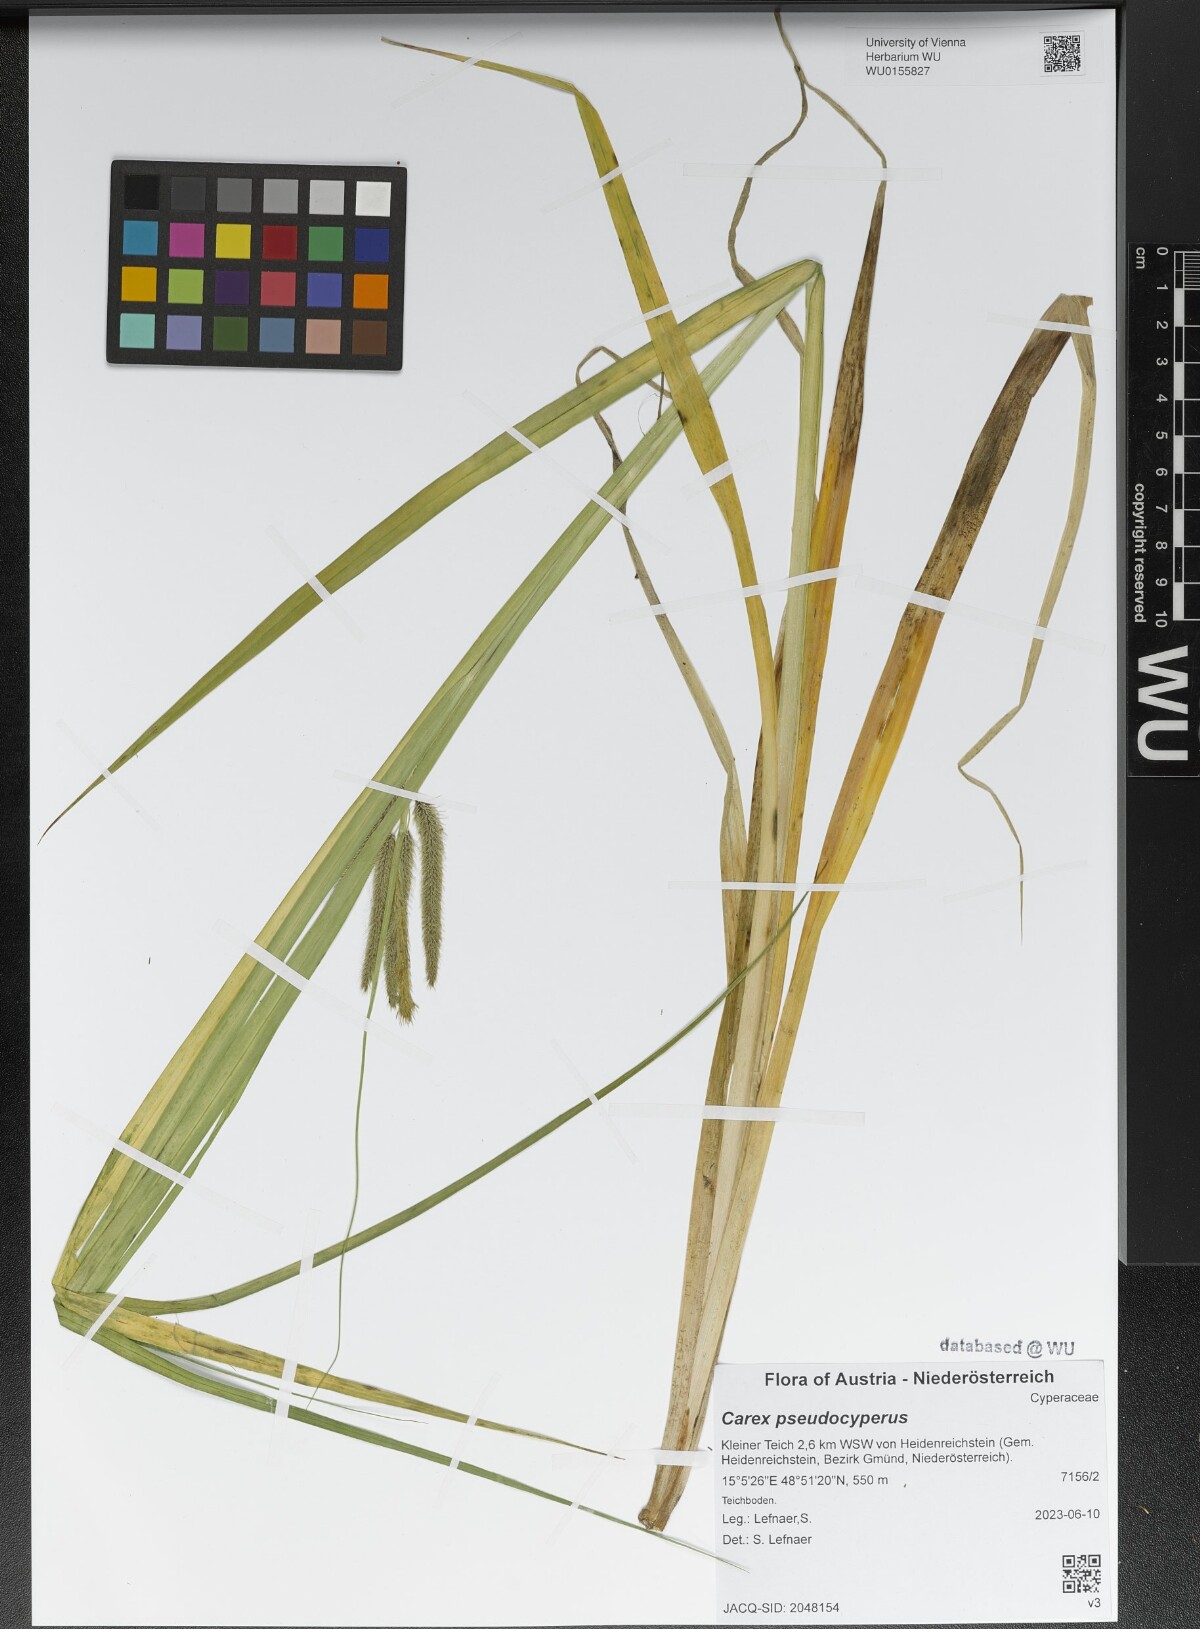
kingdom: Plantae
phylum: Tracheophyta
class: Liliopsida
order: Poales
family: Cyperaceae
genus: Carex
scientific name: Carex pseudocyperus
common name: Cyperus sedge
